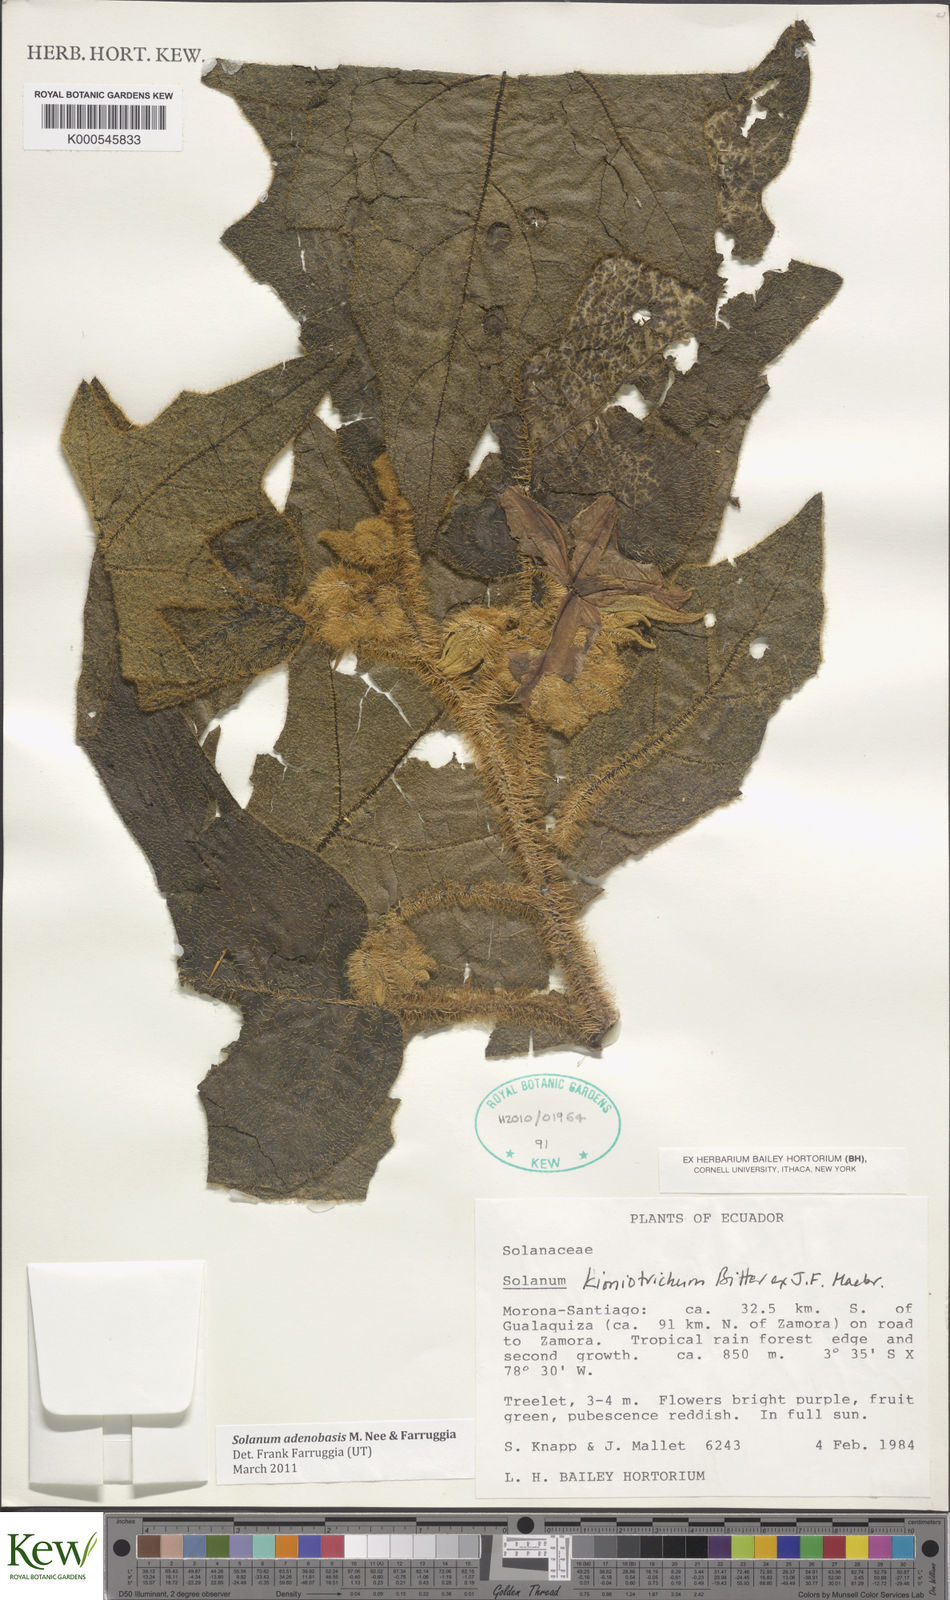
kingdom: Plantae
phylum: Tracheophyta
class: Magnoliopsida
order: Solanales
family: Solanaceae
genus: Solanum
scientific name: Solanum adenobasis
